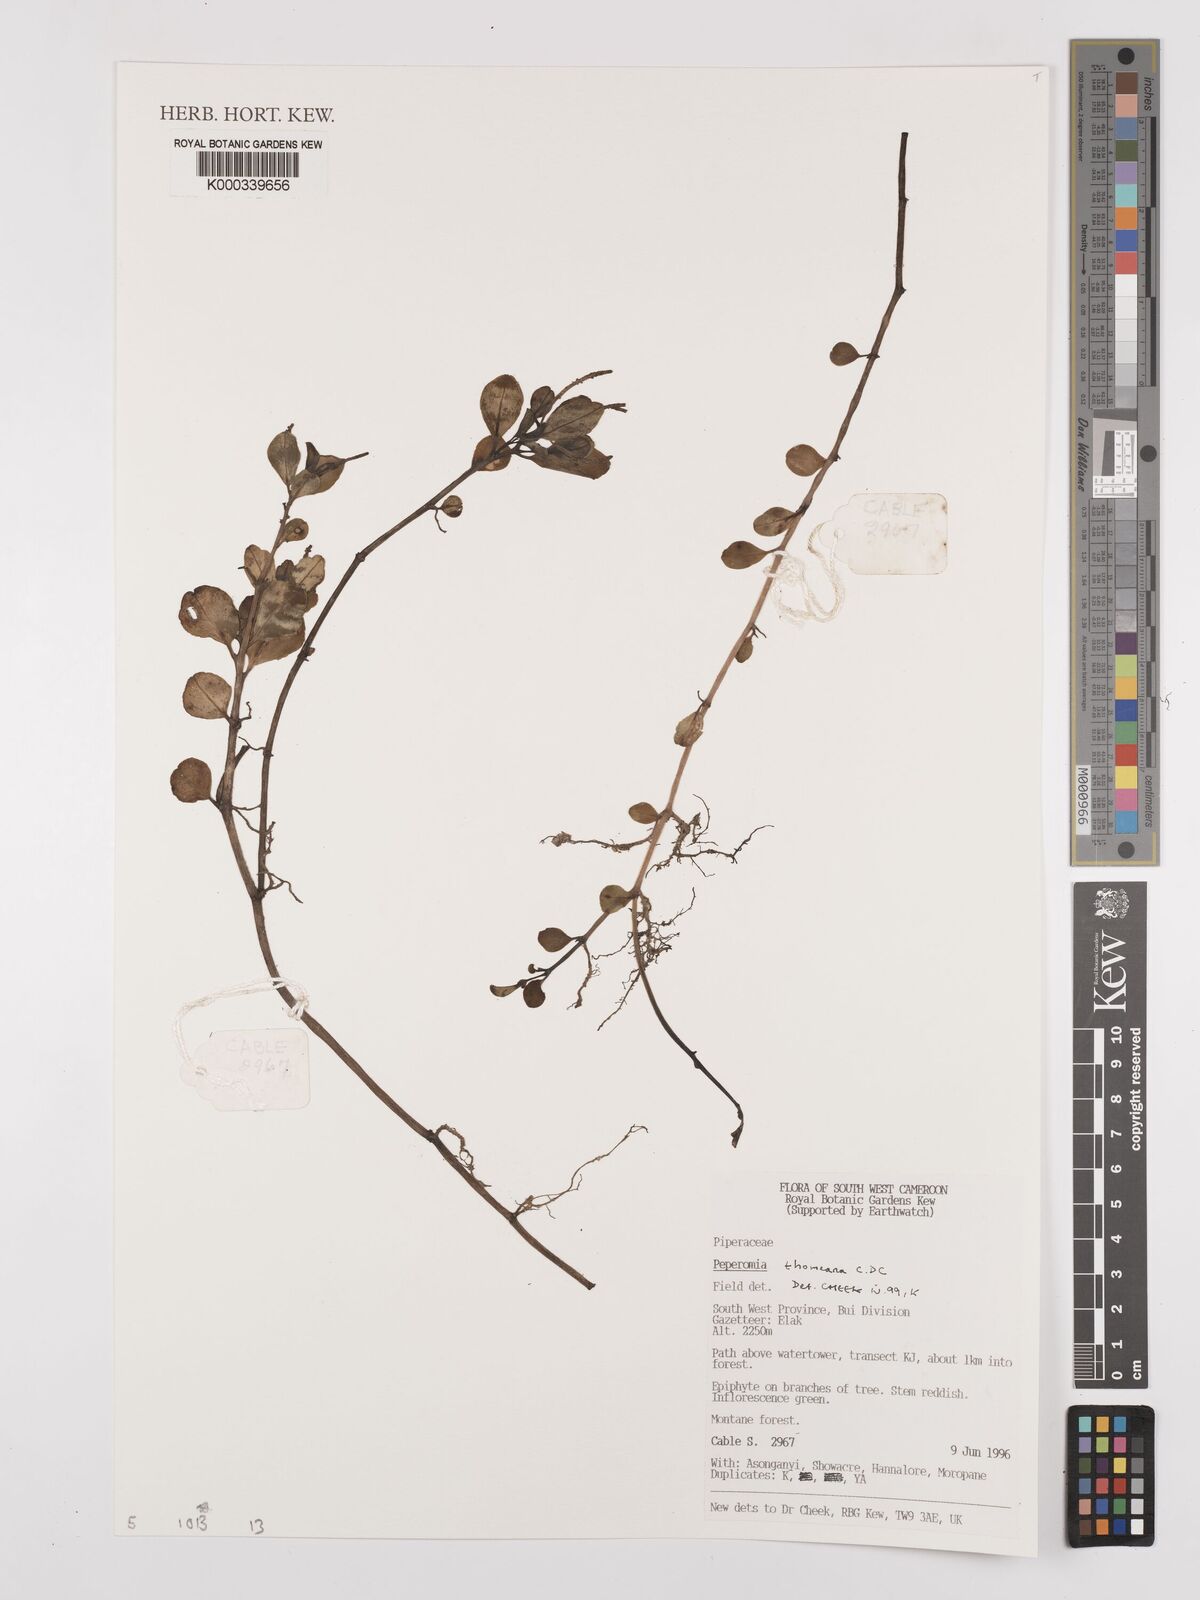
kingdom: Plantae
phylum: Tracheophyta
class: Magnoliopsida
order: Piperales
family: Piperaceae
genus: Peperomia
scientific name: Peperomia thomeana
